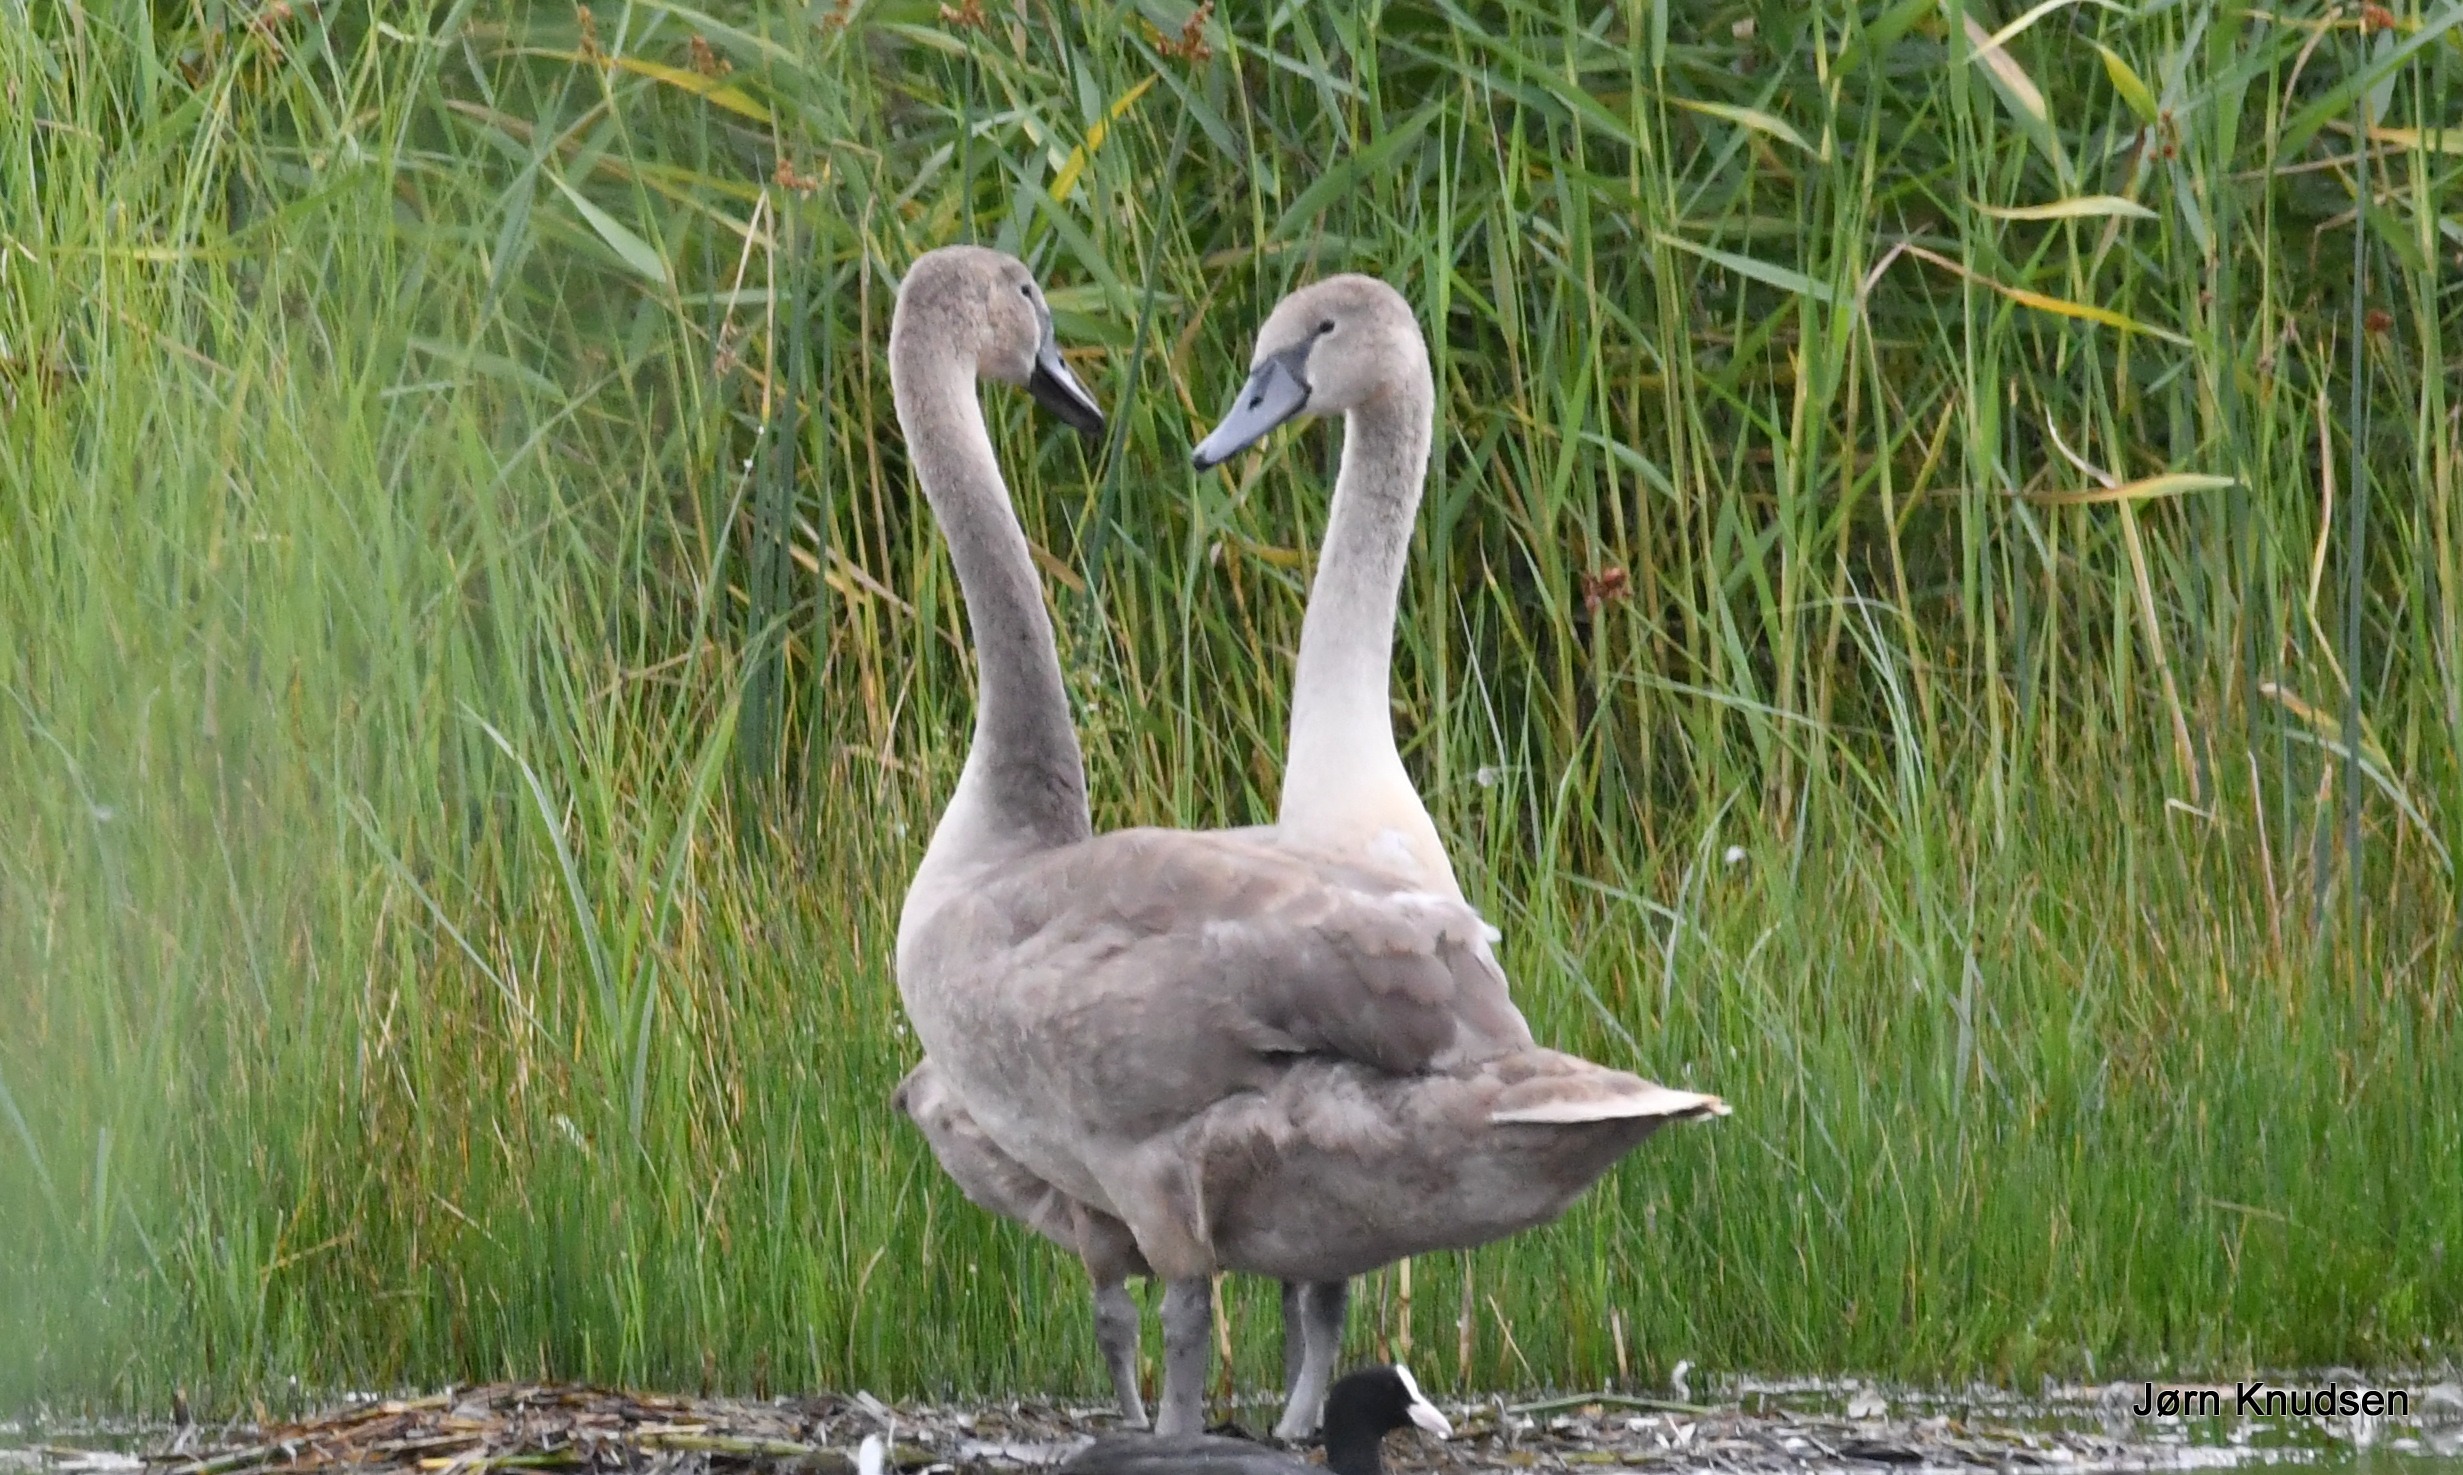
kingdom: Animalia
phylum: Chordata
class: Aves
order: Anseriformes
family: Anatidae
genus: Cygnus
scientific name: Cygnus olor
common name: Knopsvane
